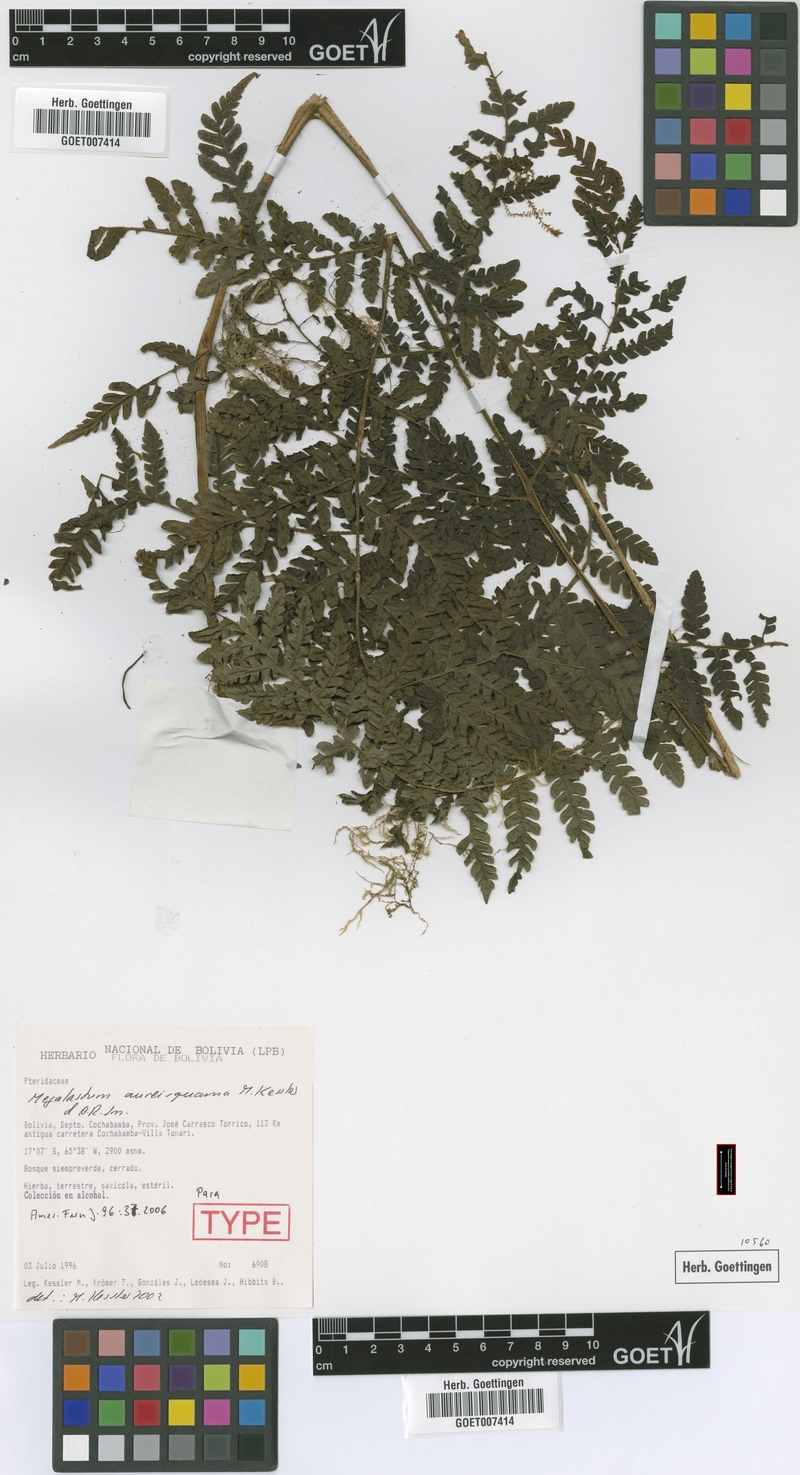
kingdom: Plantae
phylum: Tracheophyta
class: Polypodiopsida
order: Polypodiales
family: Dryopteridaceae
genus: Megalastrum
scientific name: Megalastrum aureisquama
